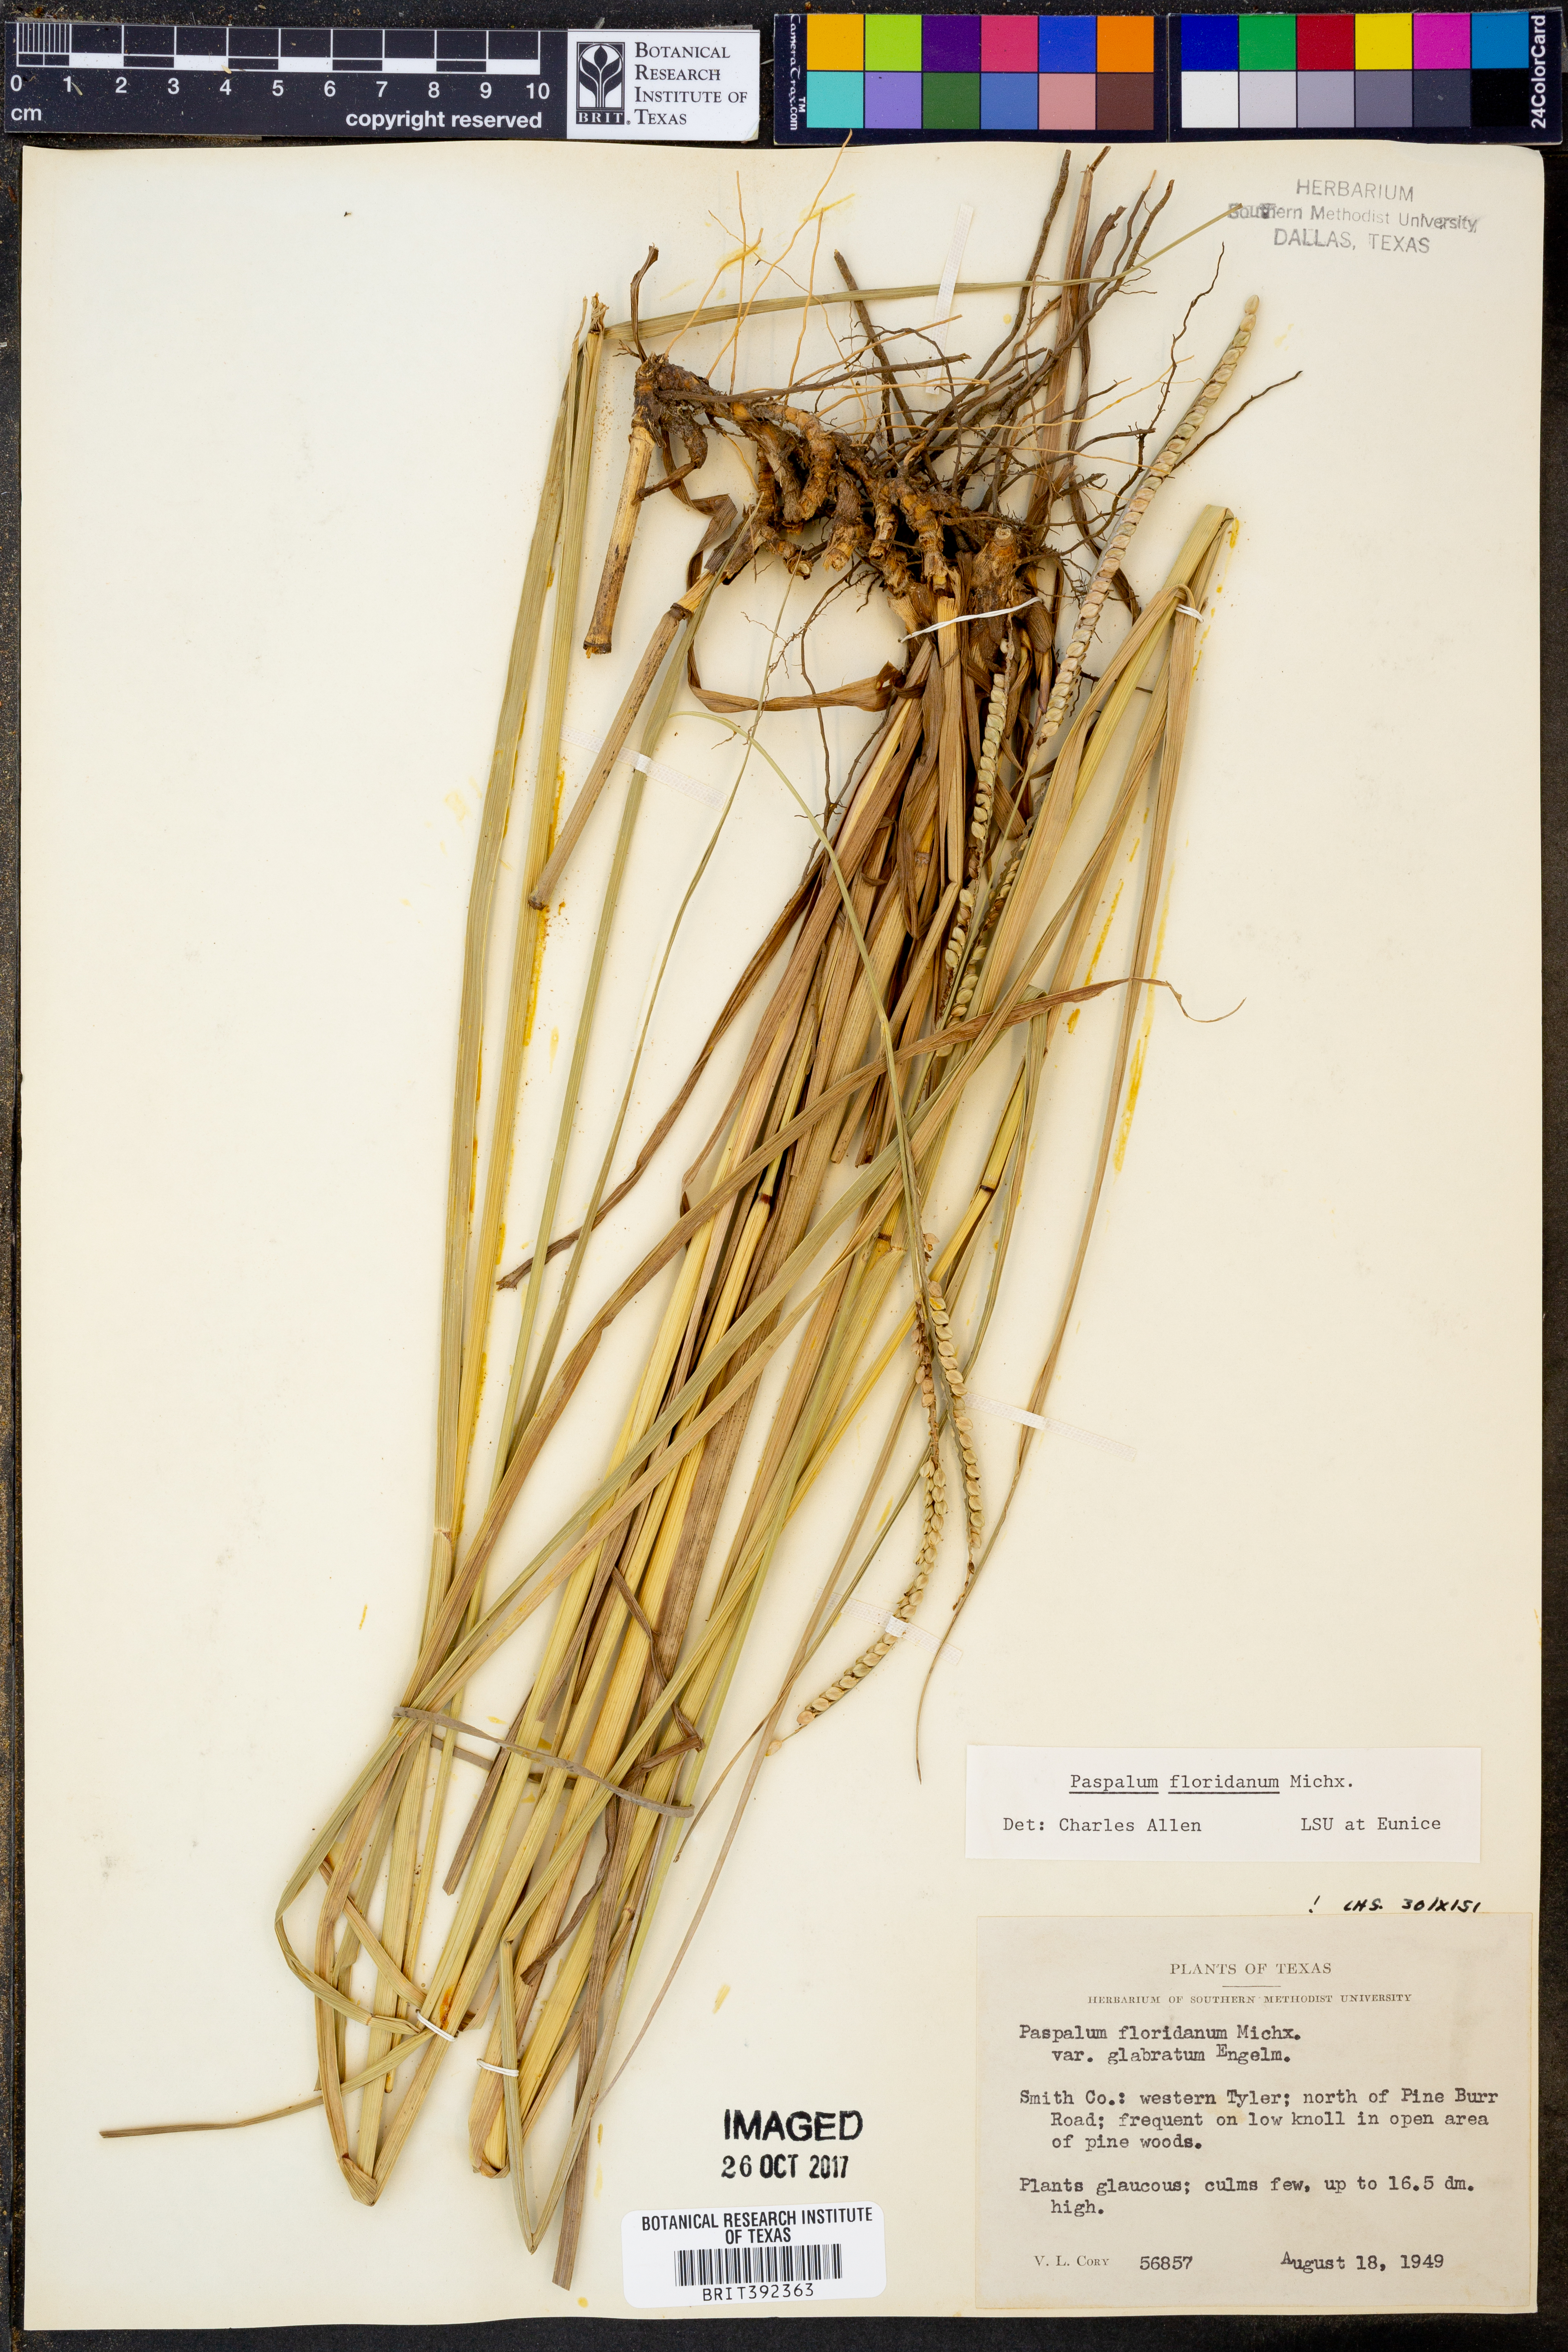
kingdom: Plantae
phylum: Tracheophyta
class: Liliopsida
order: Poales
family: Poaceae
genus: Paspalum
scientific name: Paspalum floridanum
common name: Florida paspalum
